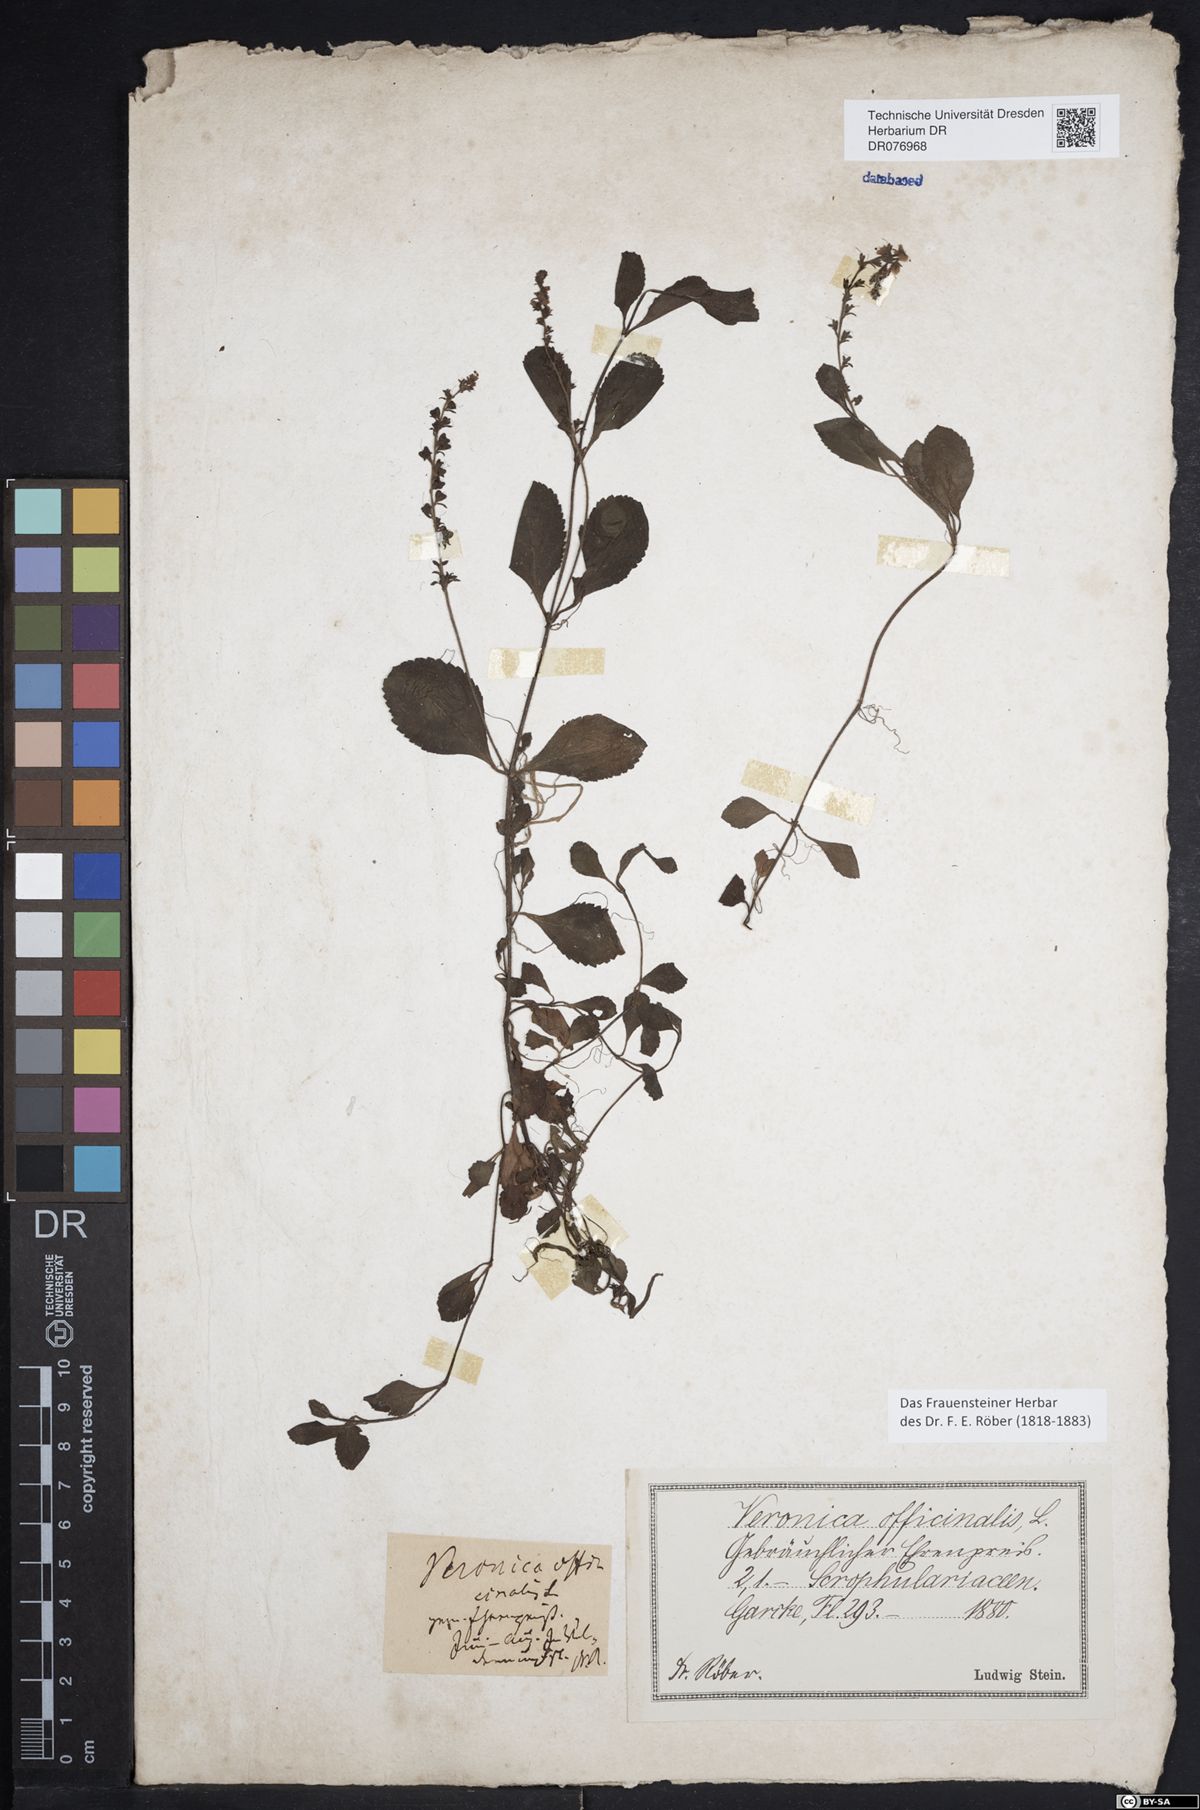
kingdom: Plantae
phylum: Tracheophyta
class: Magnoliopsida
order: Lamiales
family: Plantaginaceae
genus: Veronica
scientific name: Veronica officinalis
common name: Common speedwell
